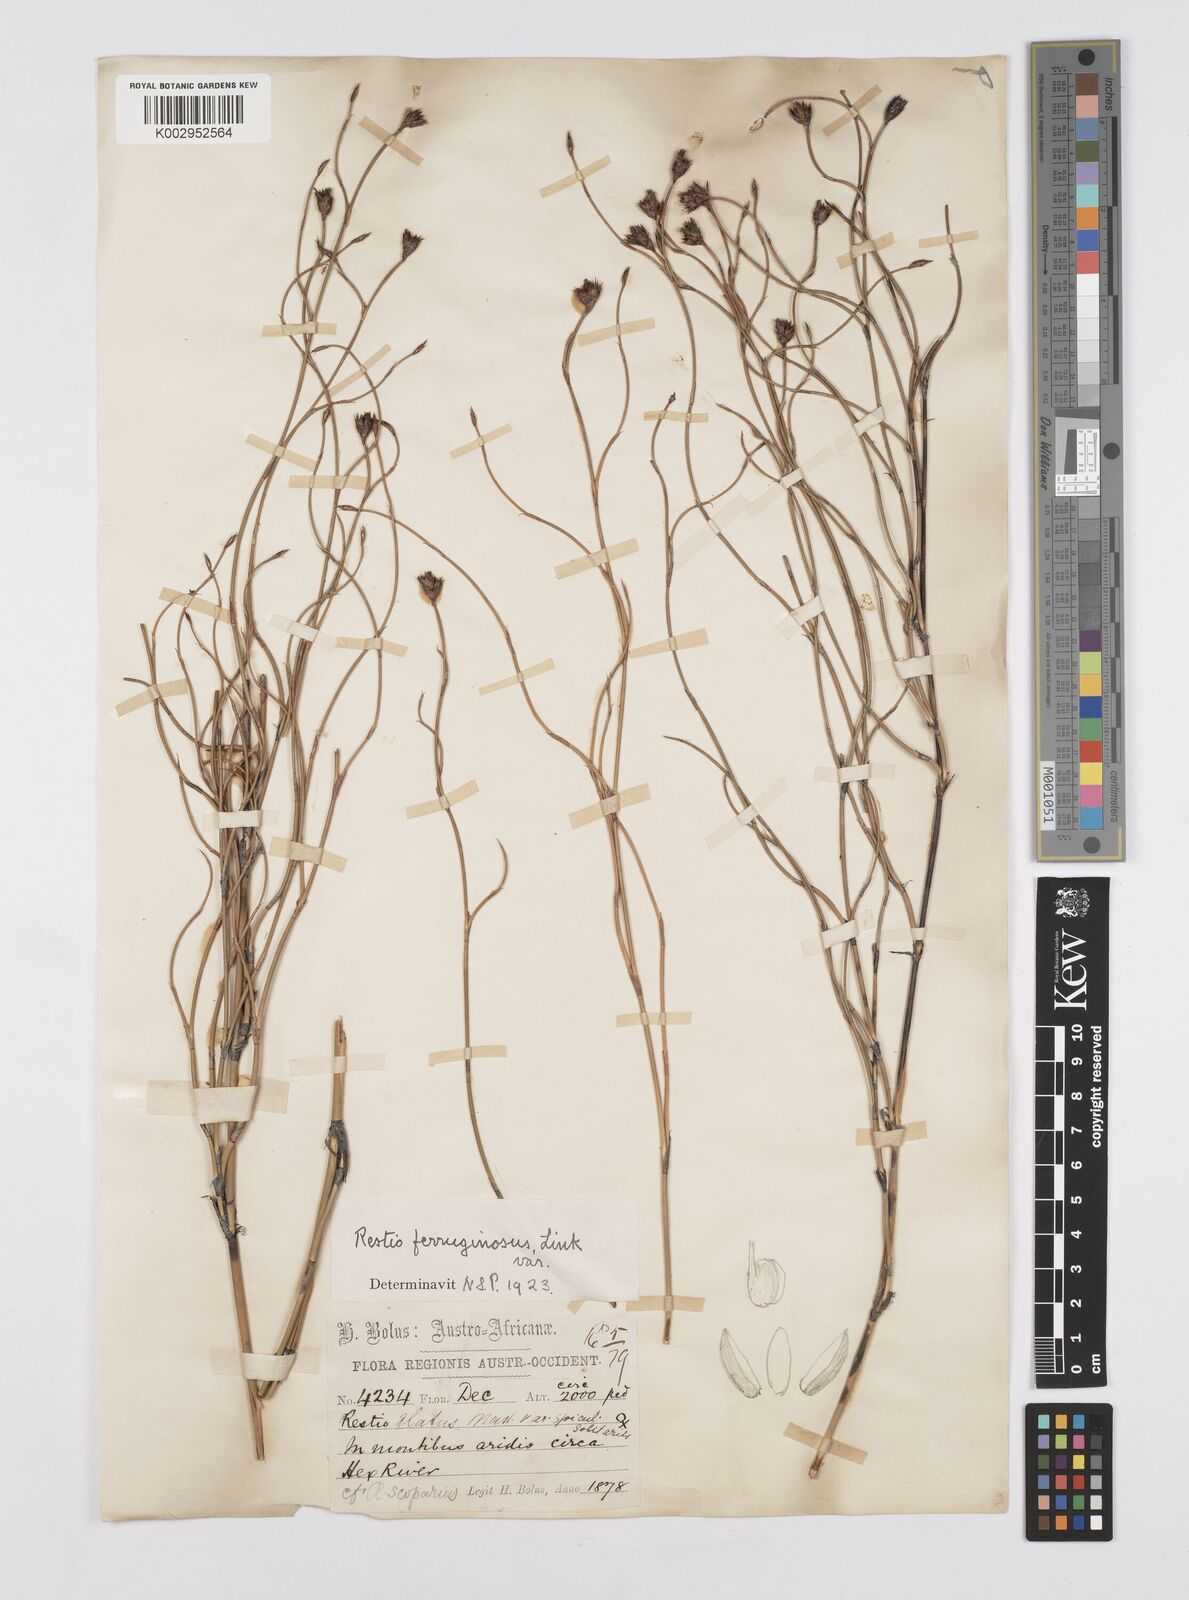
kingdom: Plantae
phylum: Tracheophyta
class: Liliopsida
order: Poales
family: Restionaceae
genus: Restio
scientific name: Restio gaudichaudianus
